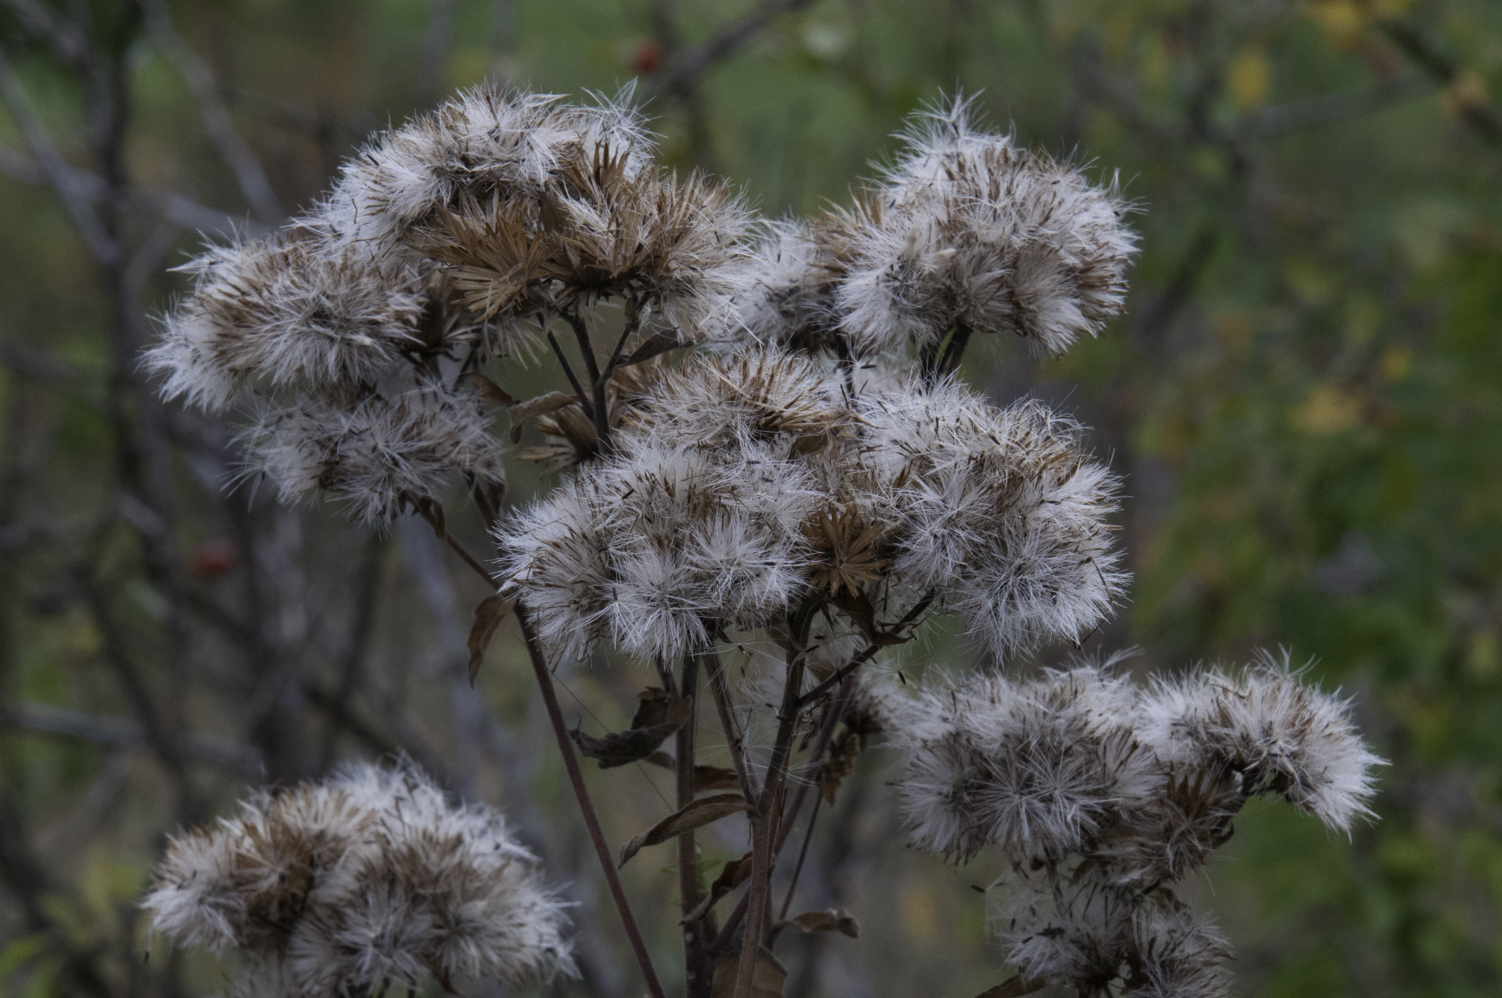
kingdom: Plantae
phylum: Tracheophyta
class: Magnoliopsida
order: Asterales
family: Asteraceae
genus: Pentanema
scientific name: Pentanema squarrosum
